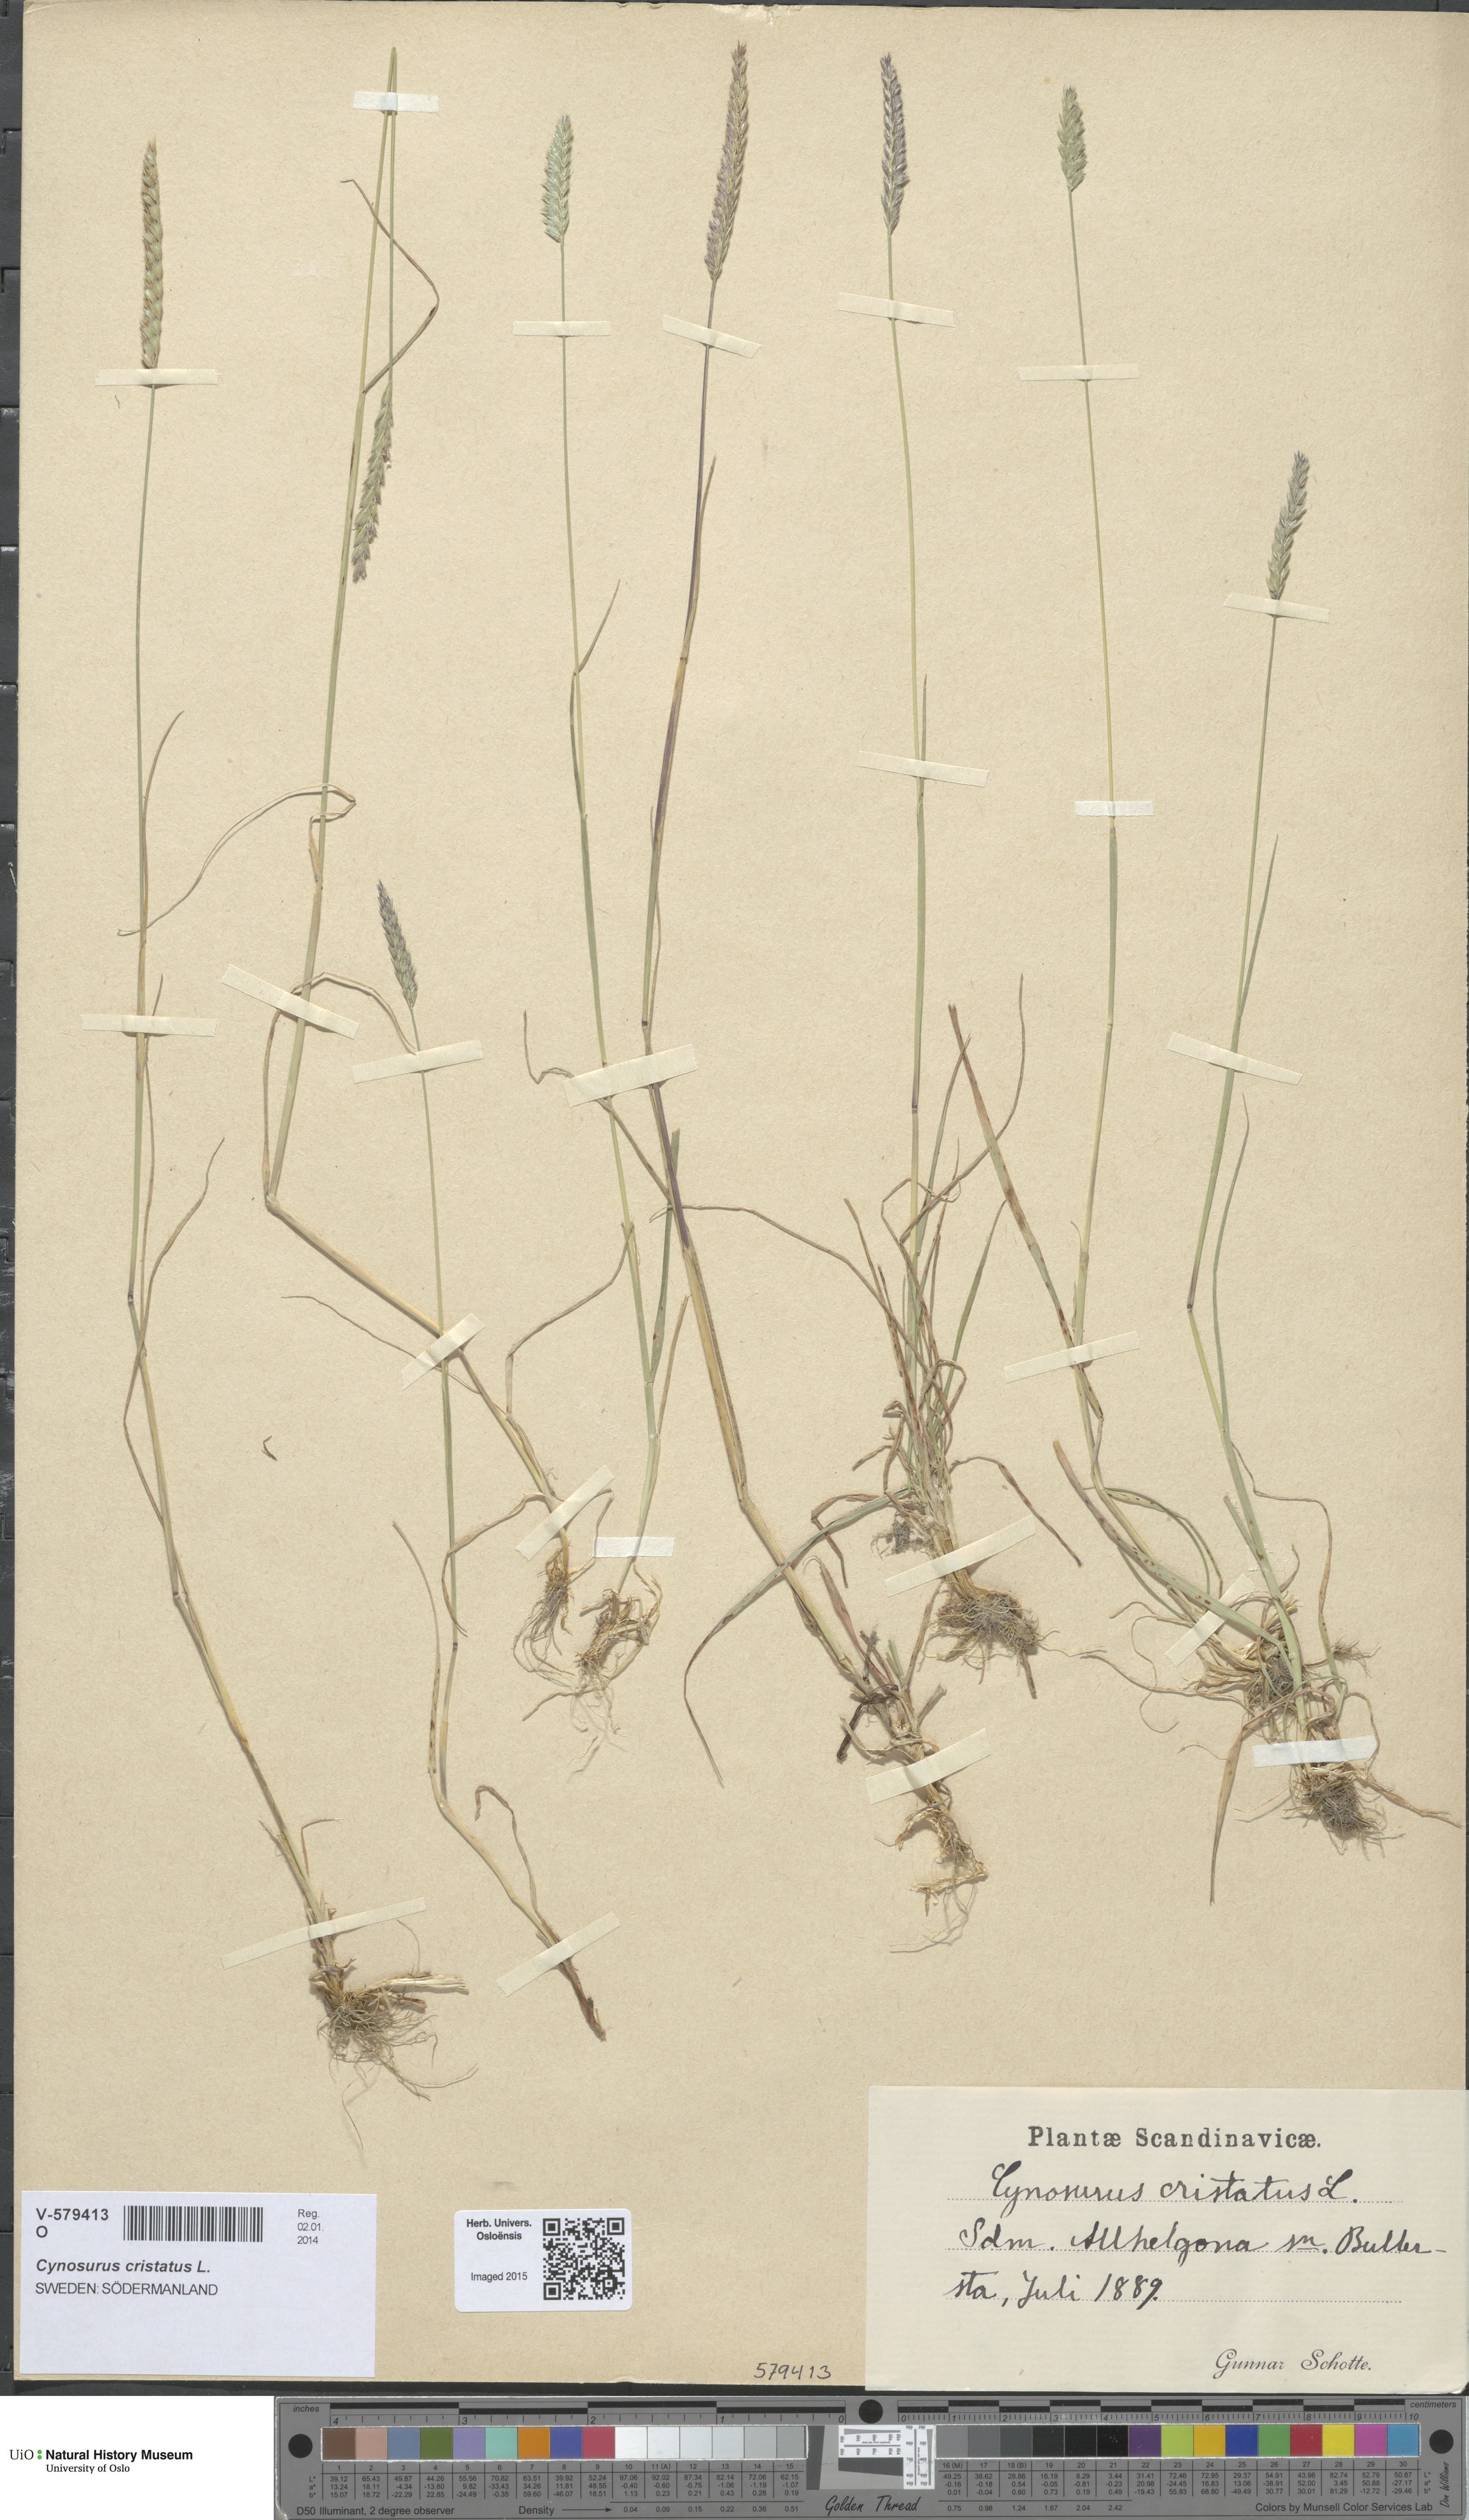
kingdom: Plantae
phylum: Tracheophyta
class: Liliopsida
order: Poales
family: Poaceae
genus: Cynosurus
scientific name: Cynosurus cristatus
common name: Crested dog's-tail
